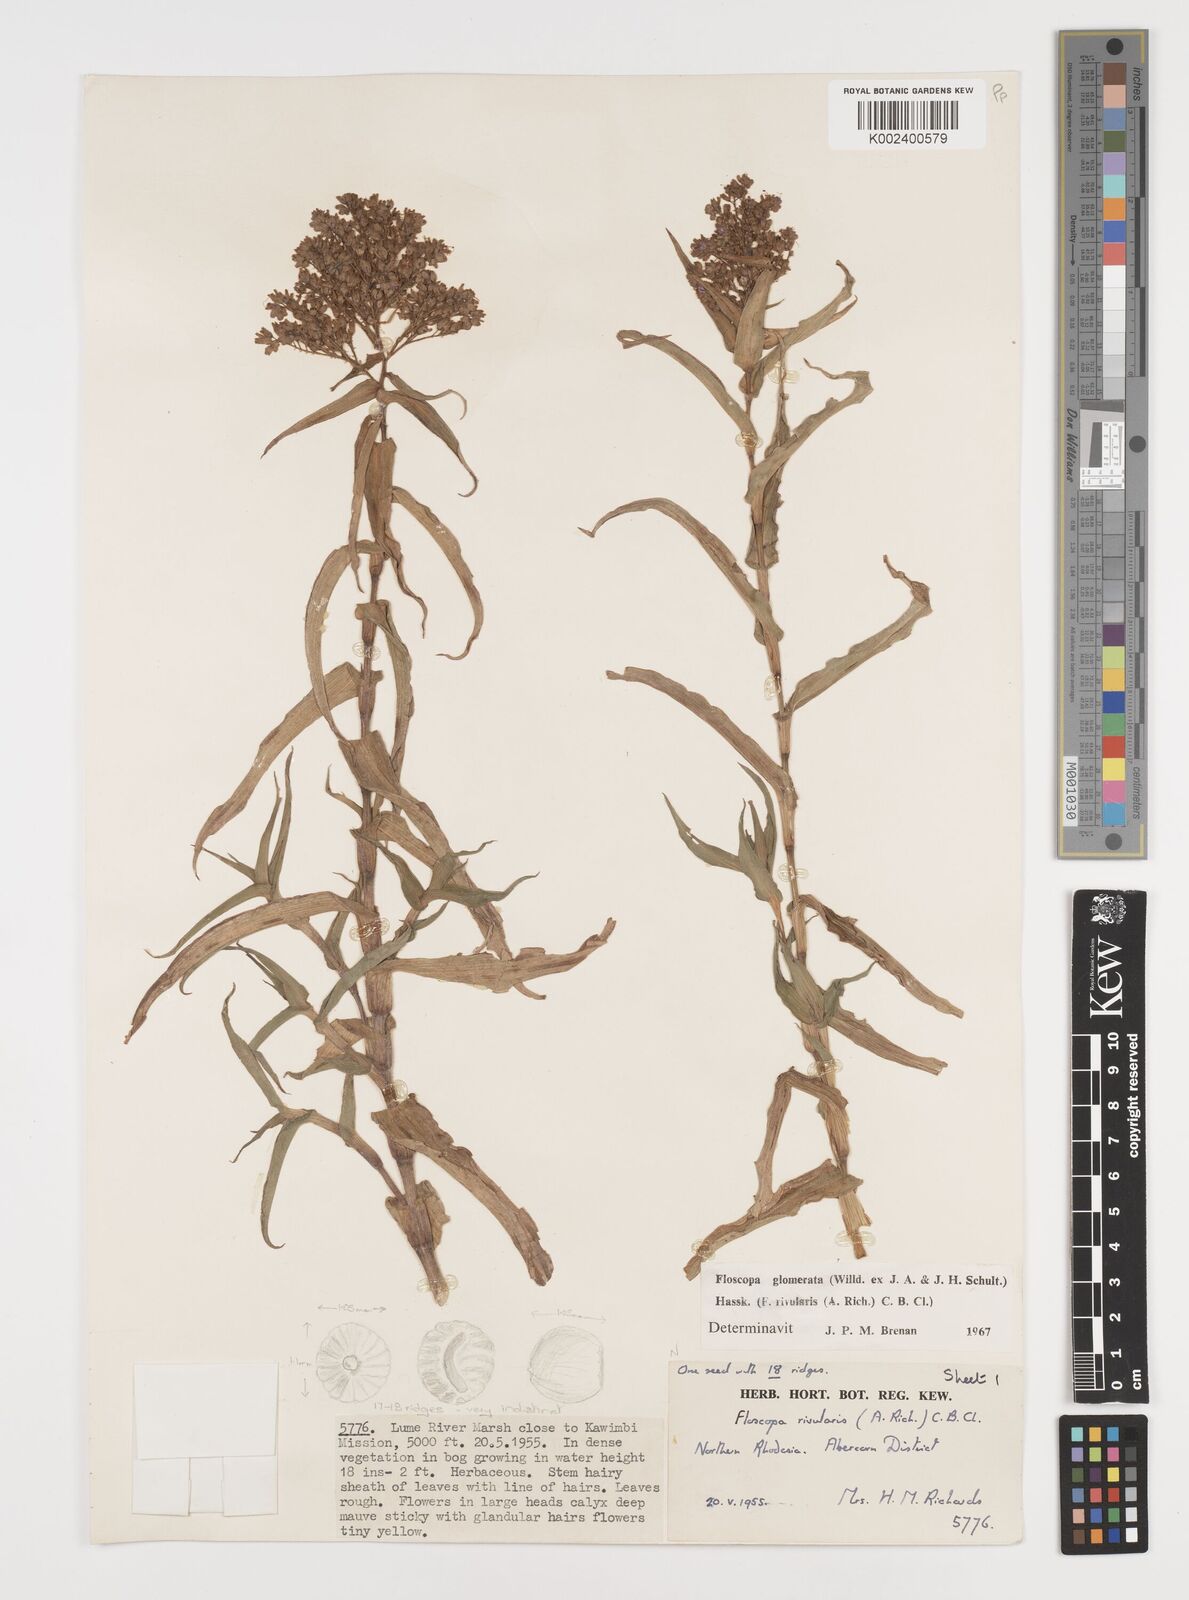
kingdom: Plantae
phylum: Tracheophyta
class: Liliopsida
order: Commelinales
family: Commelinaceae
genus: Floscopa
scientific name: Floscopa glomerata
